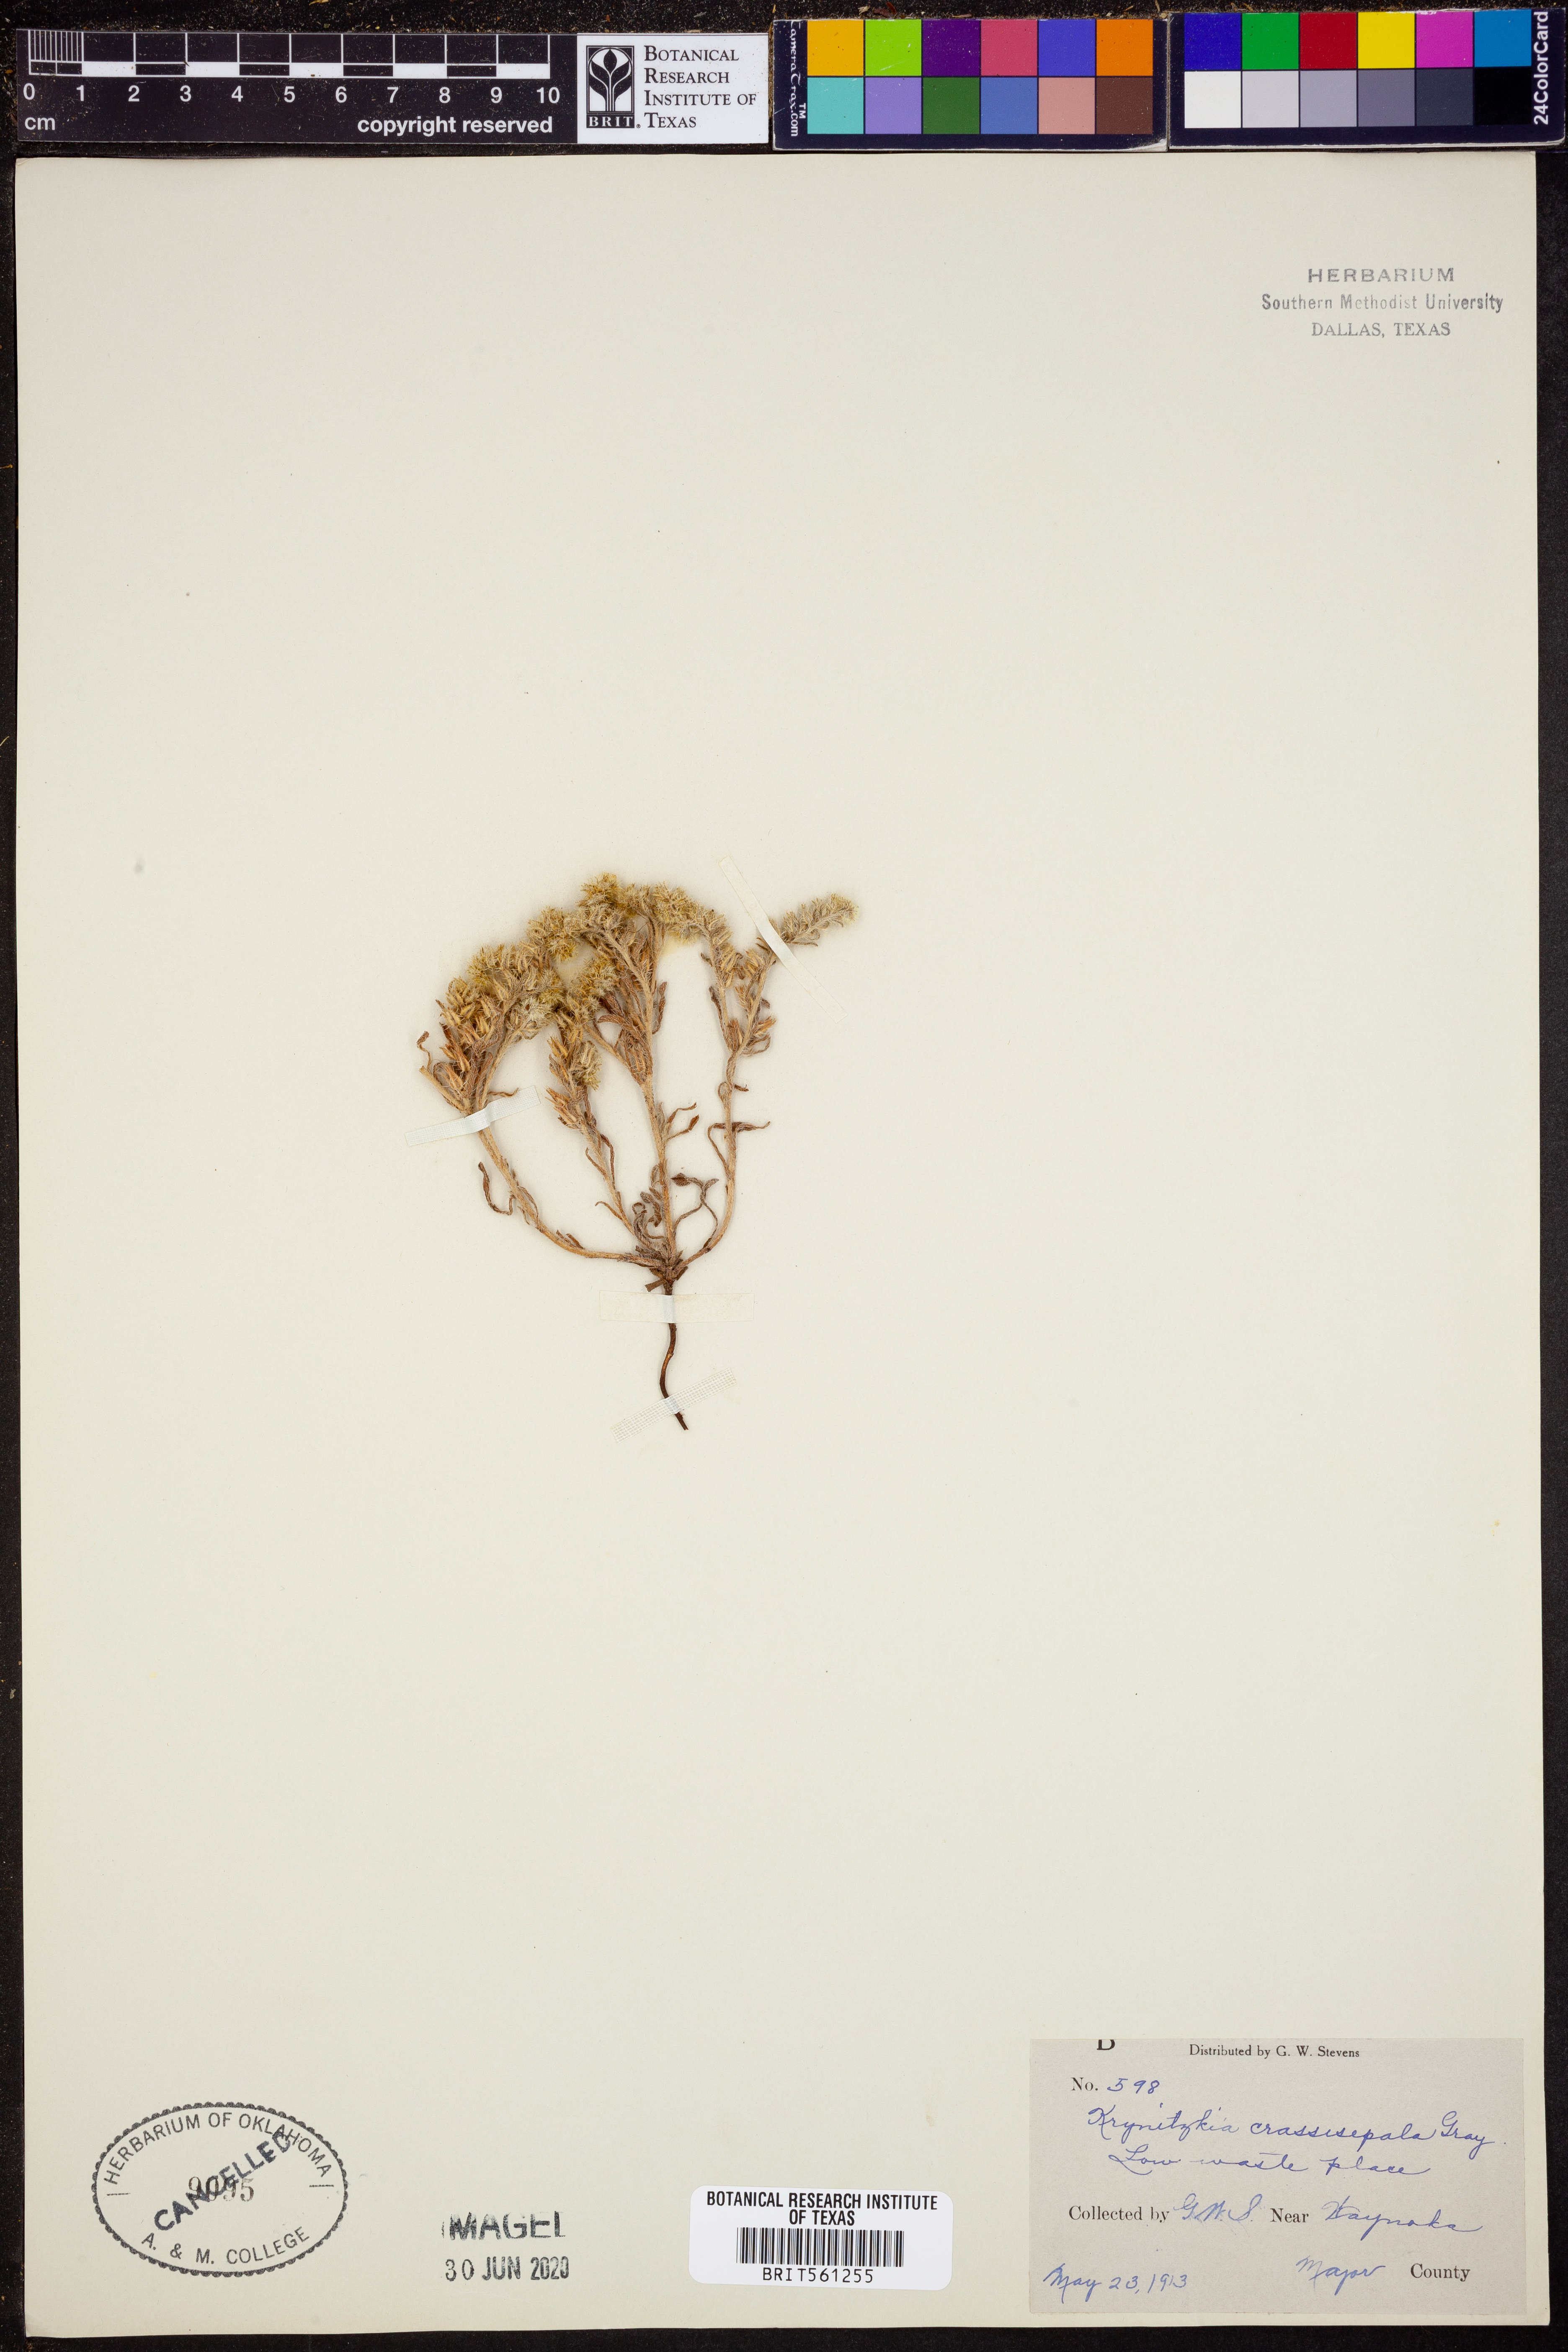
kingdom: Plantae
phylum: Tracheophyta
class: Magnoliopsida
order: Boraginales
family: Boraginaceae
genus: Cryptantha
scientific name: Cryptantha crassisepala
